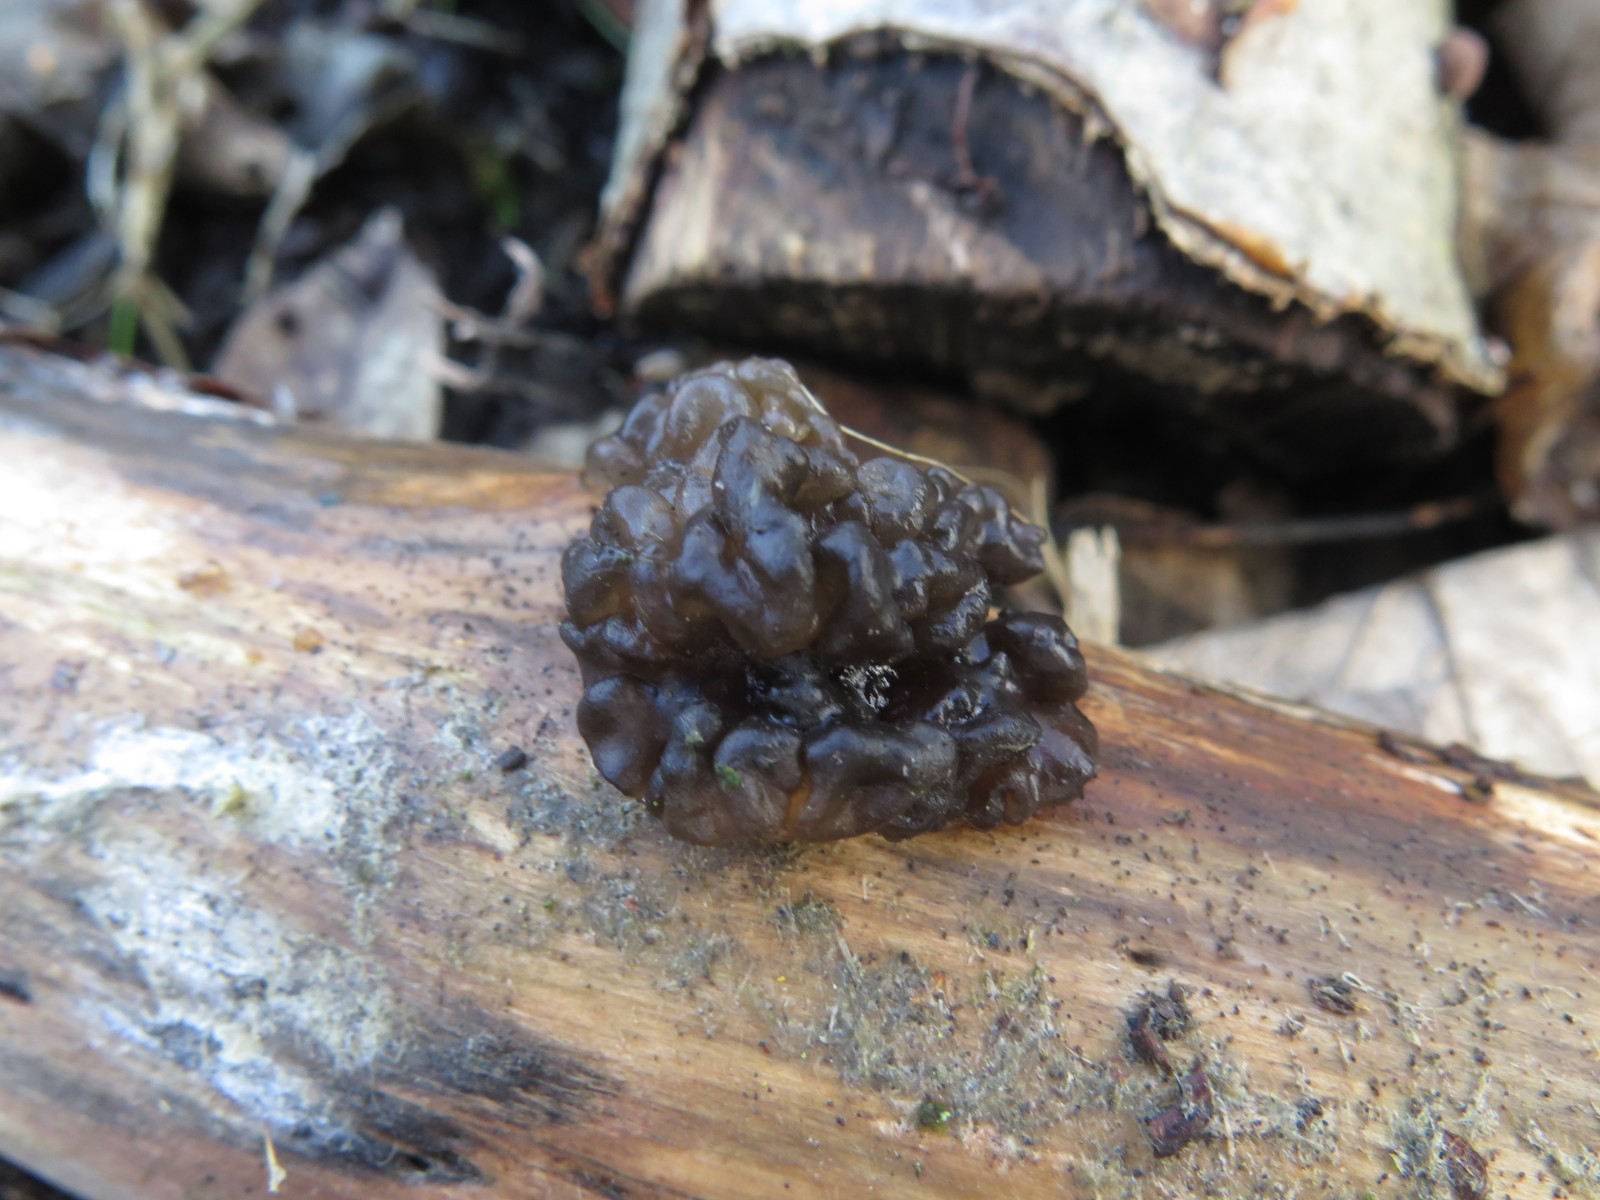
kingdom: Fungi
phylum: Basidiomycota
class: Agaricomycetes
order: Auriculariales
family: Auriculariaceae
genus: Exidia
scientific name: Exidia nigricans
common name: almindelig bævretop
